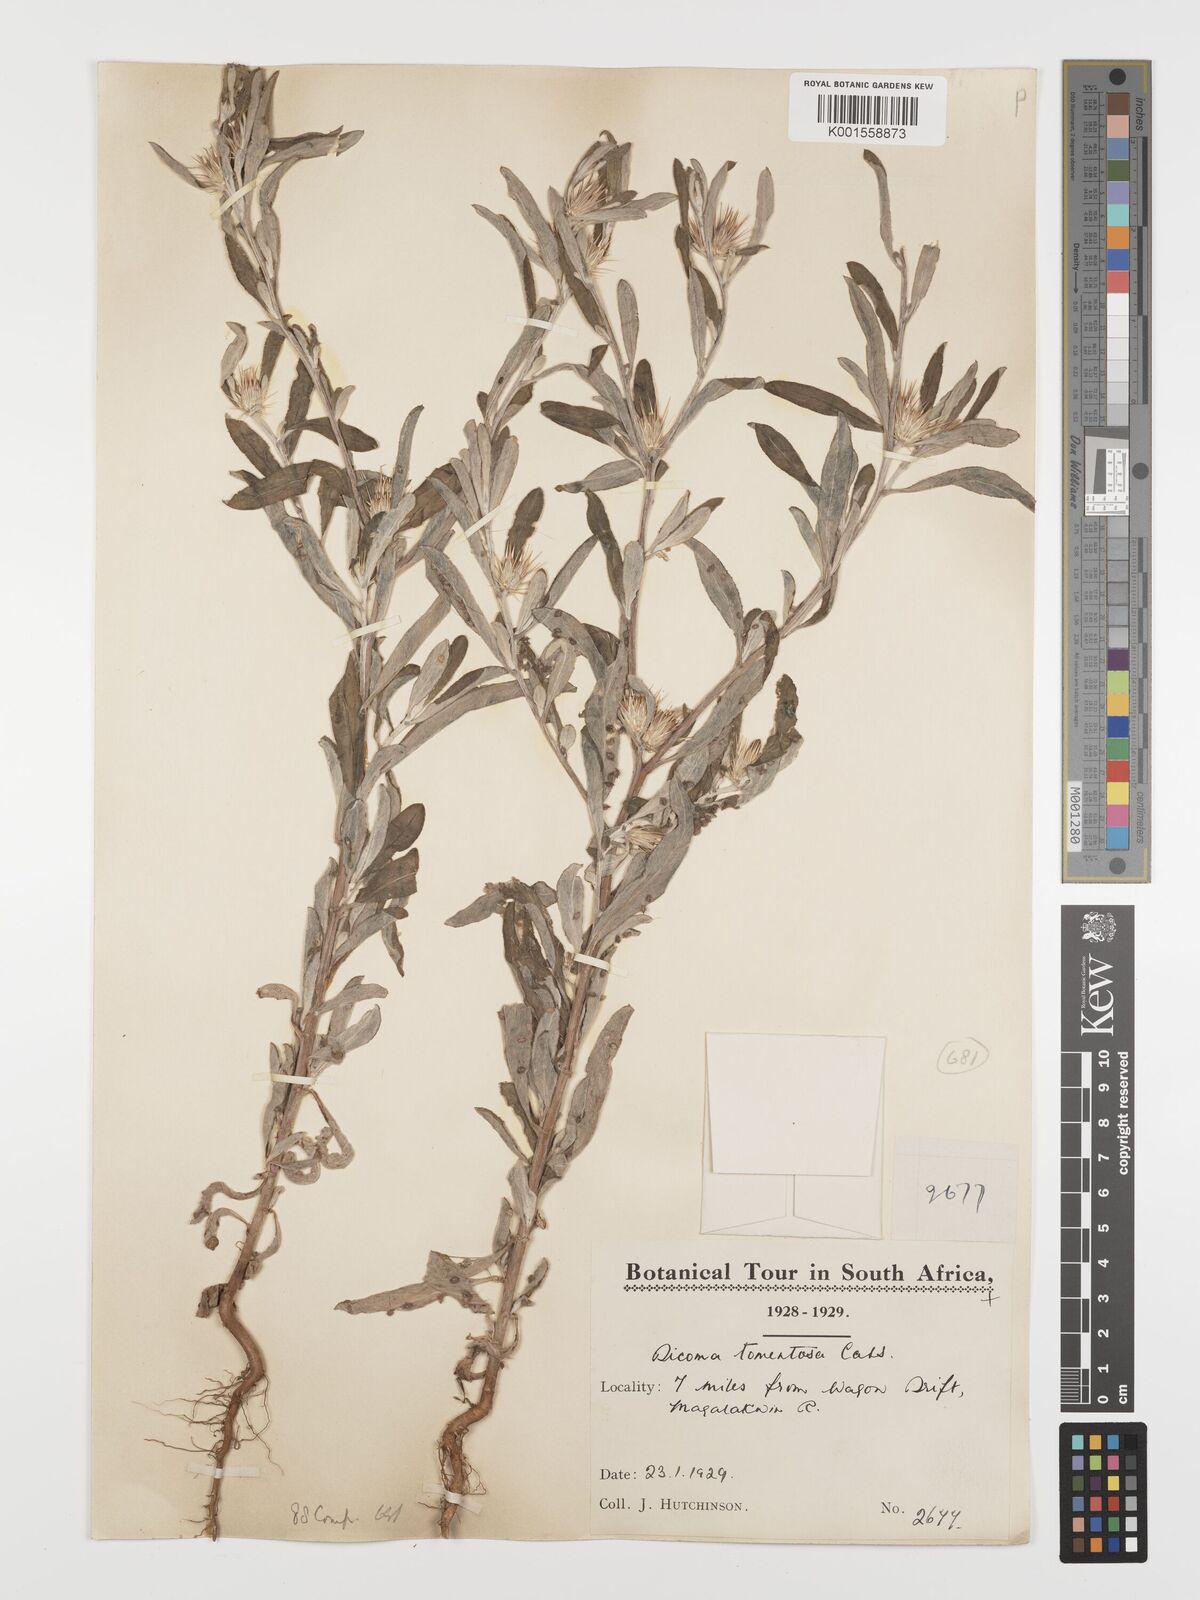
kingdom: Plantae
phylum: Tracheophyta
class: Magnoliopsida
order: Asterales
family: Asteraceae
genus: Dicoma
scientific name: Dicoma tomentosa
